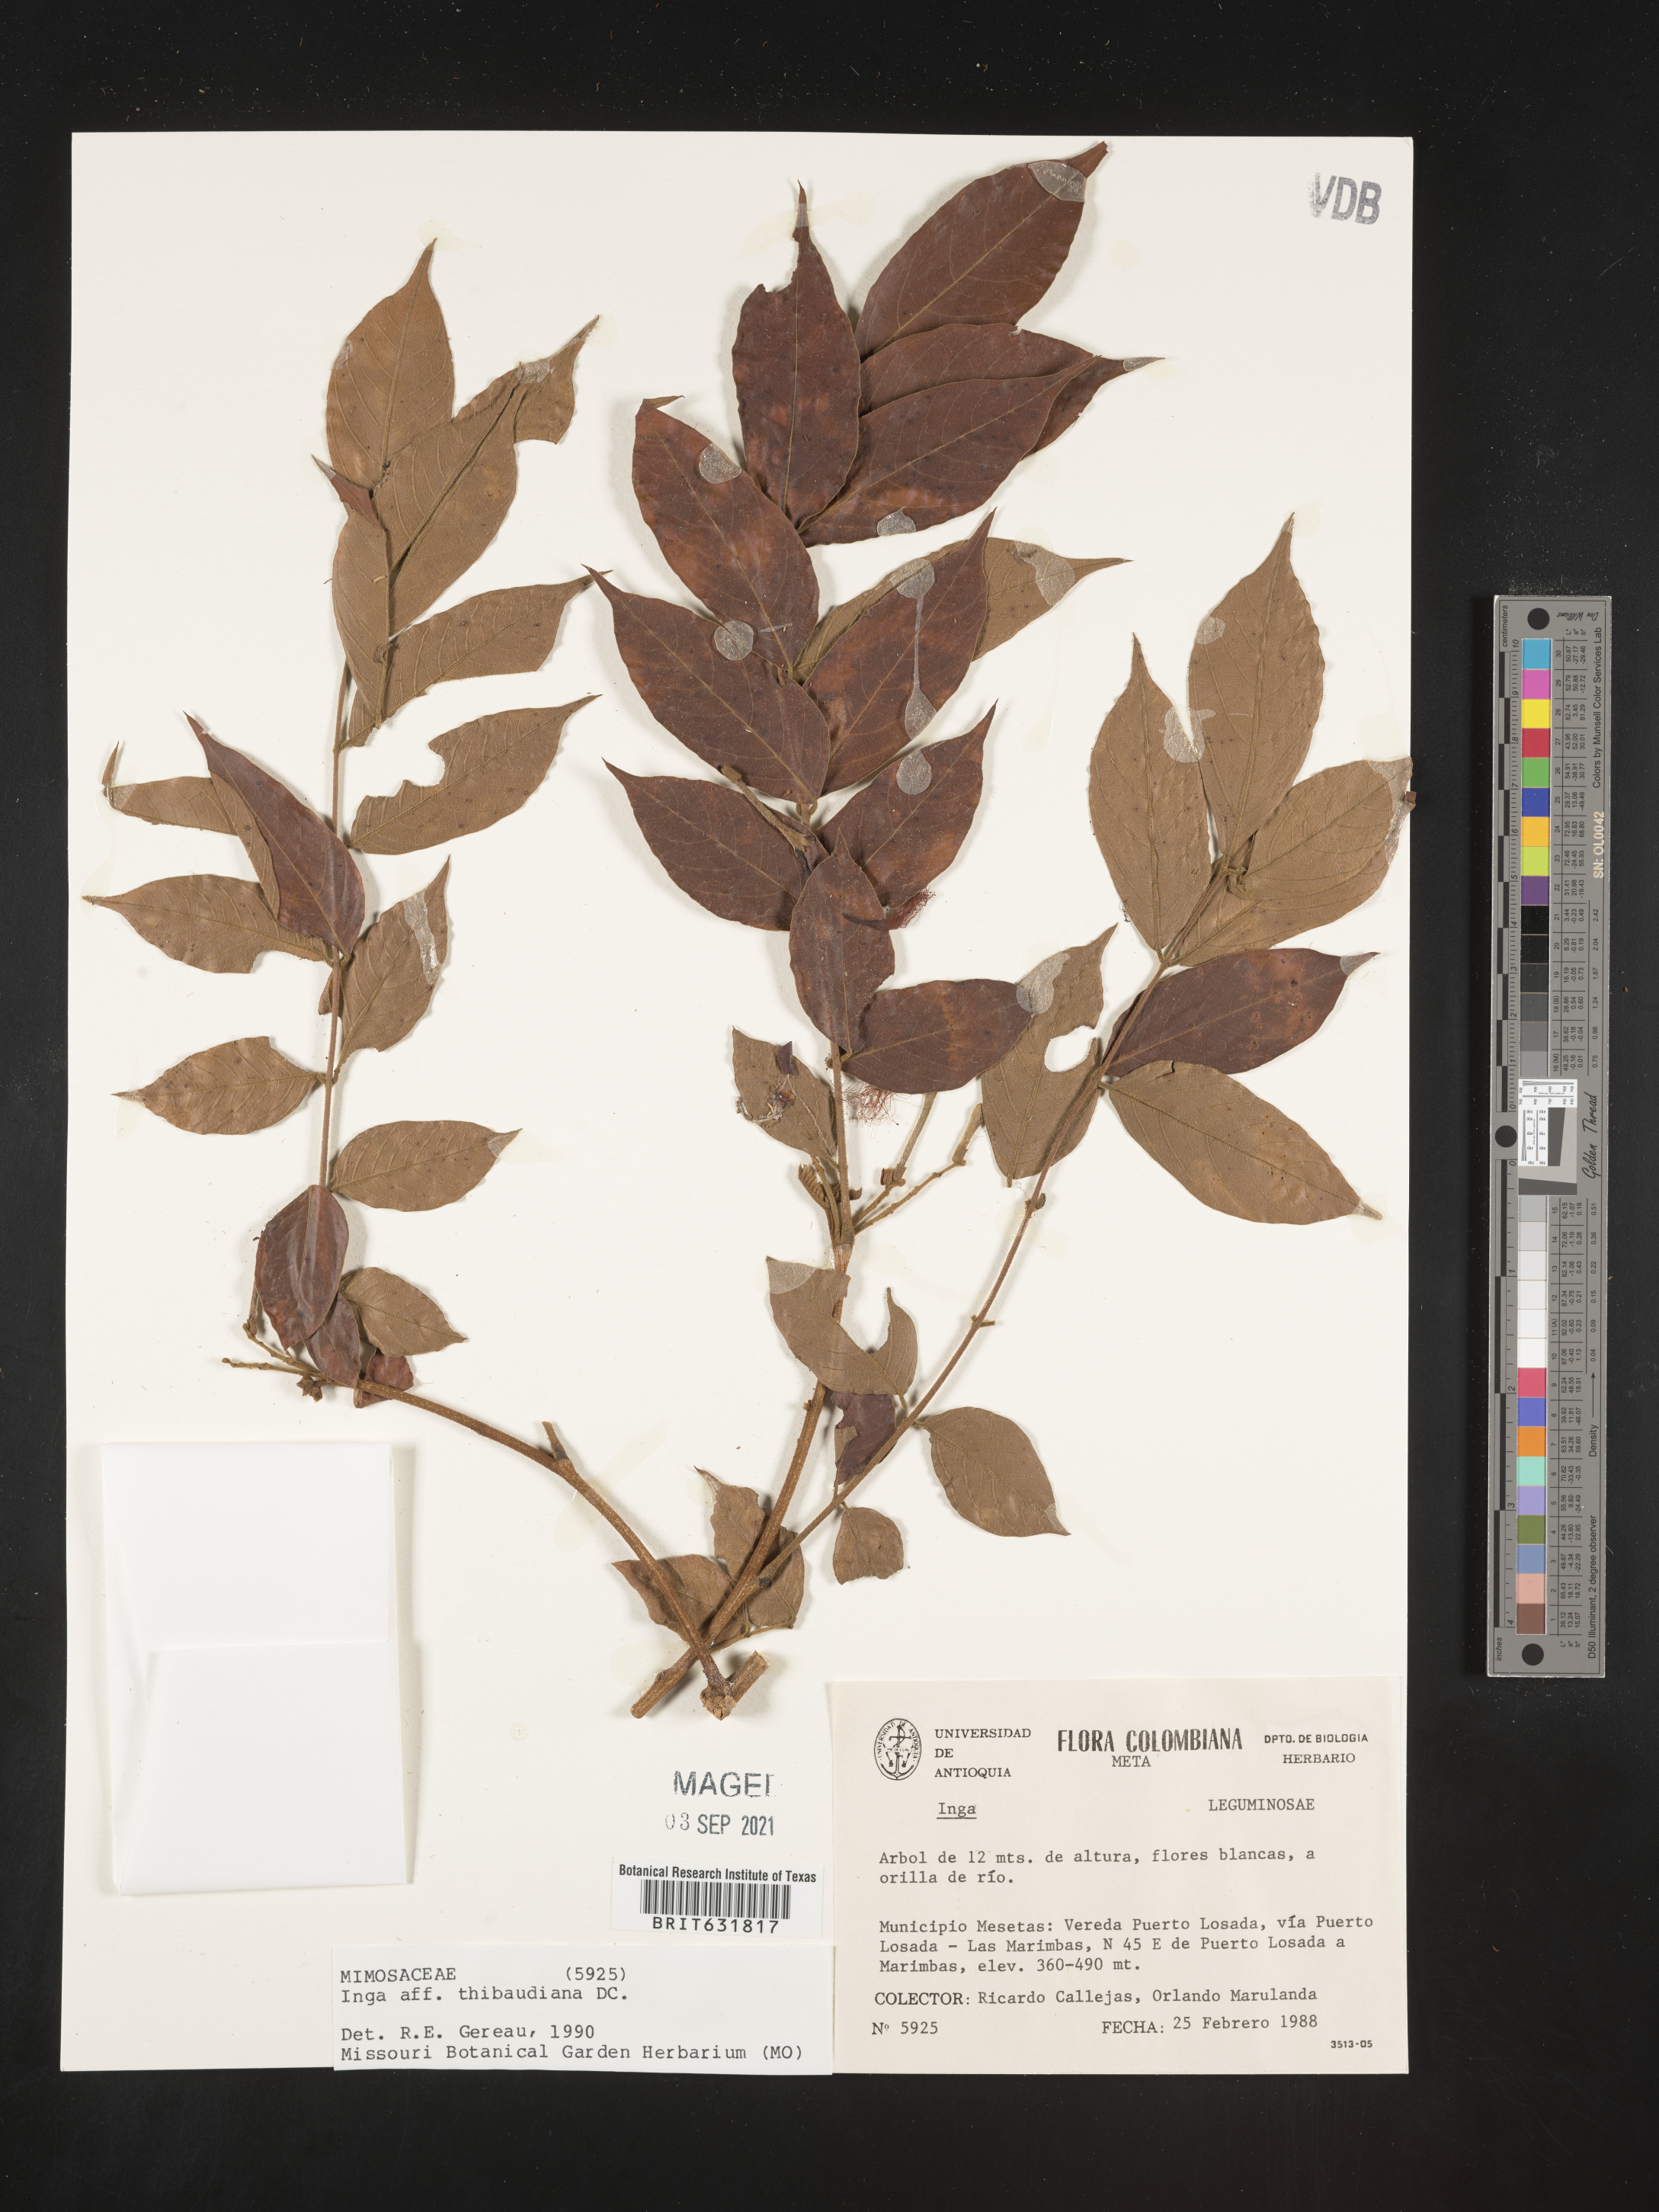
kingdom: Plantae
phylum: Tracheophyta
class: Magnoliopsida
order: Fabales
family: Fabaceae
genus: Inga
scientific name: Inga
